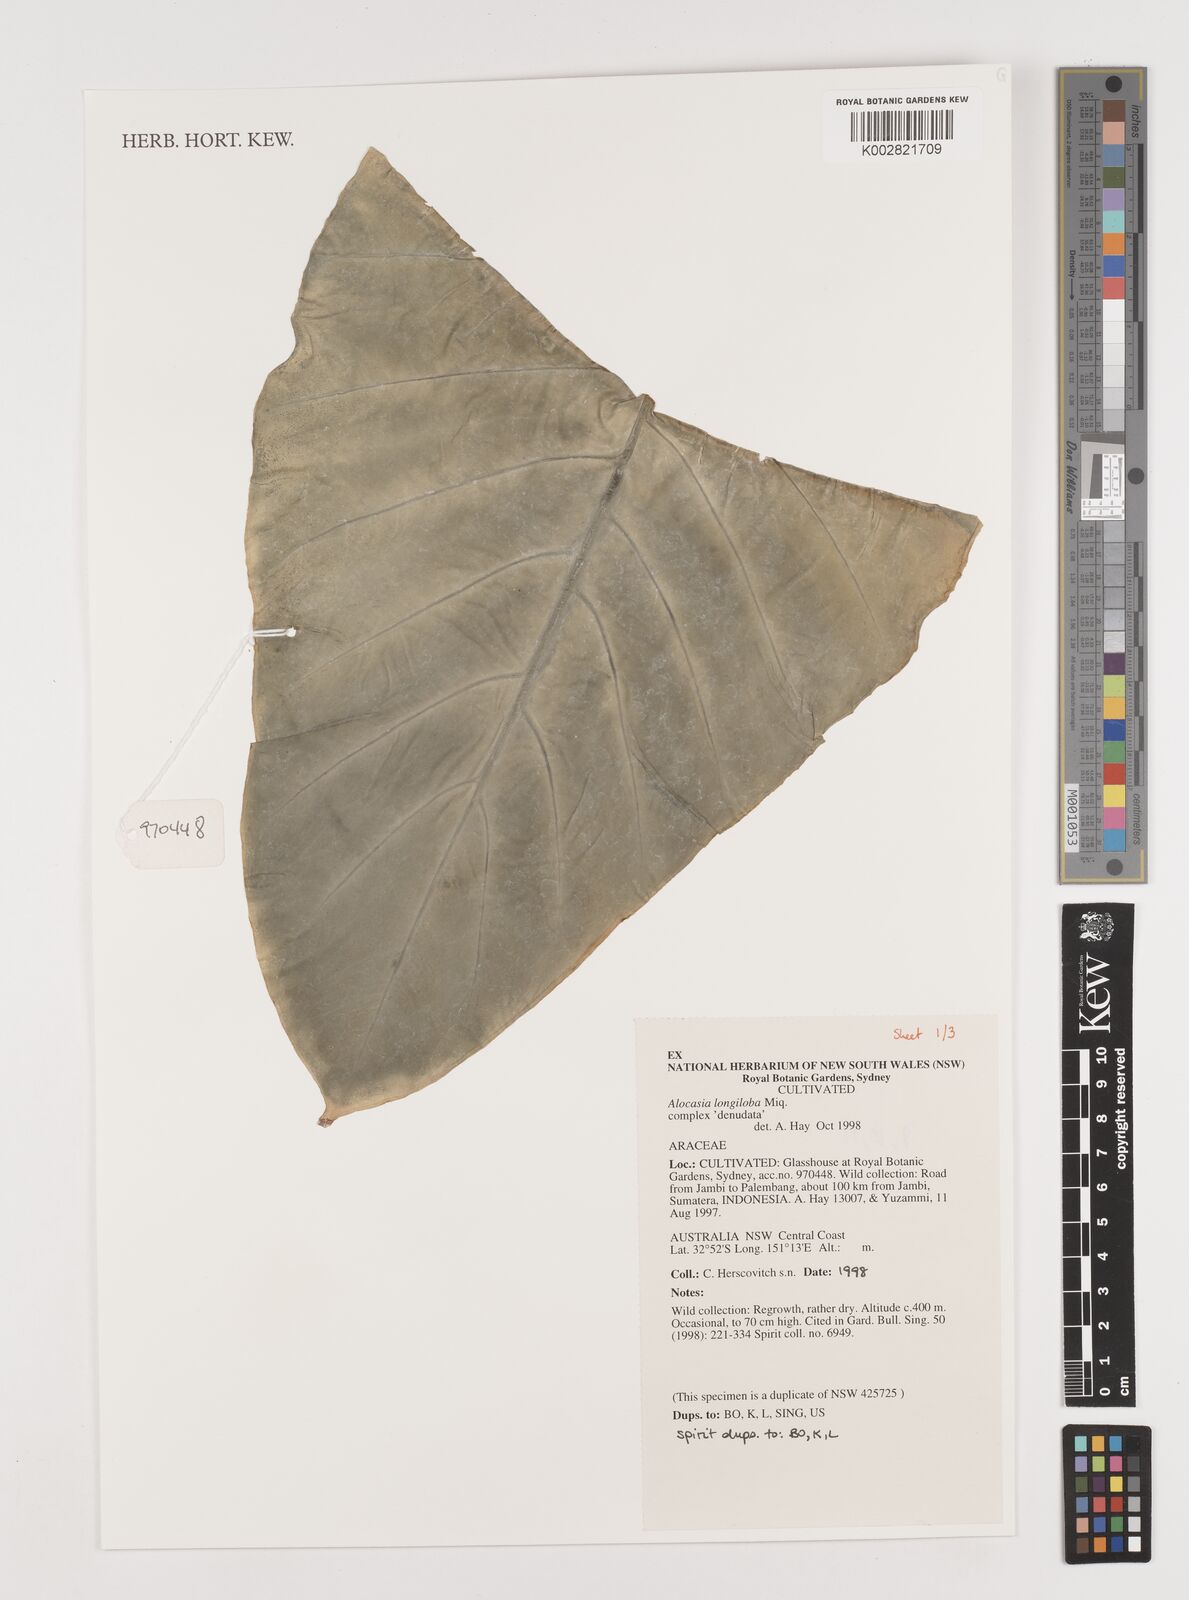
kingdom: Plantae
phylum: Tracheophyta
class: Liliopsida
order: Alismatales
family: Araceae
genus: Alocasia
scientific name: Alocasia longiloba
